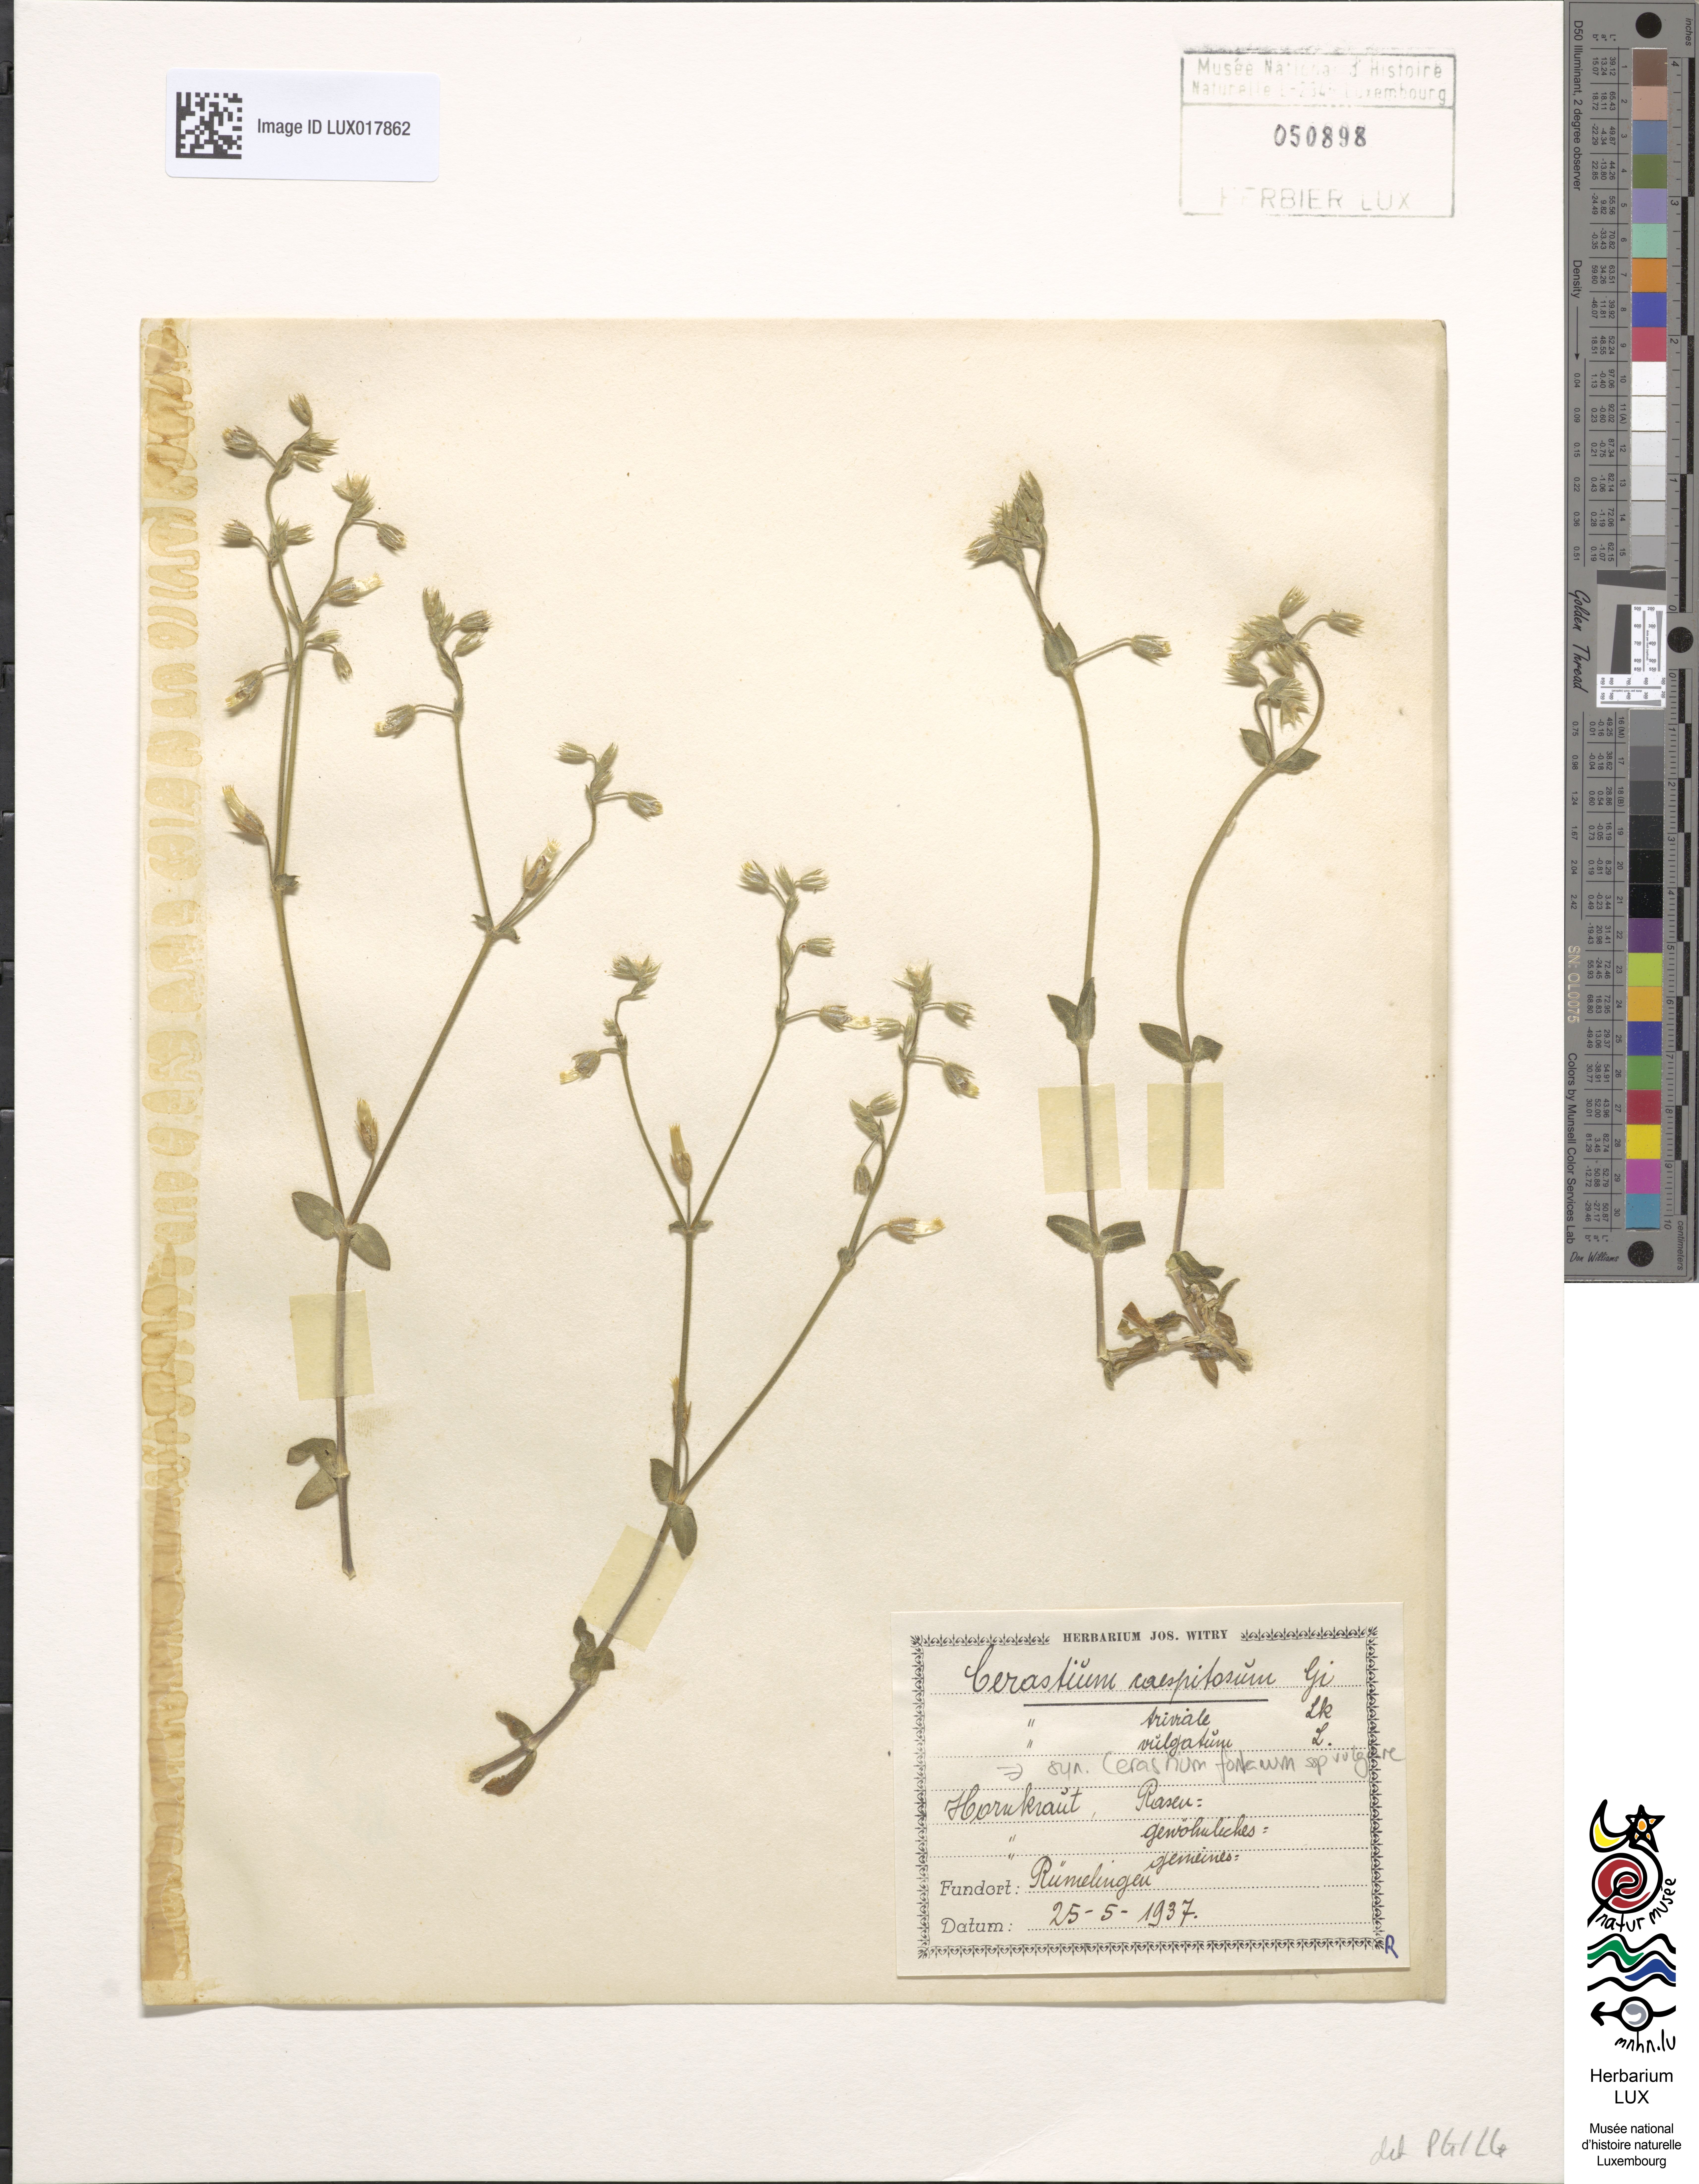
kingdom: Plantae
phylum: Tracheophyta
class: Magnoliopsida
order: Caryophyllales
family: Caryophyllaceae
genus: Cerastium
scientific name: Cerastium holosteoides
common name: Big chickweed
